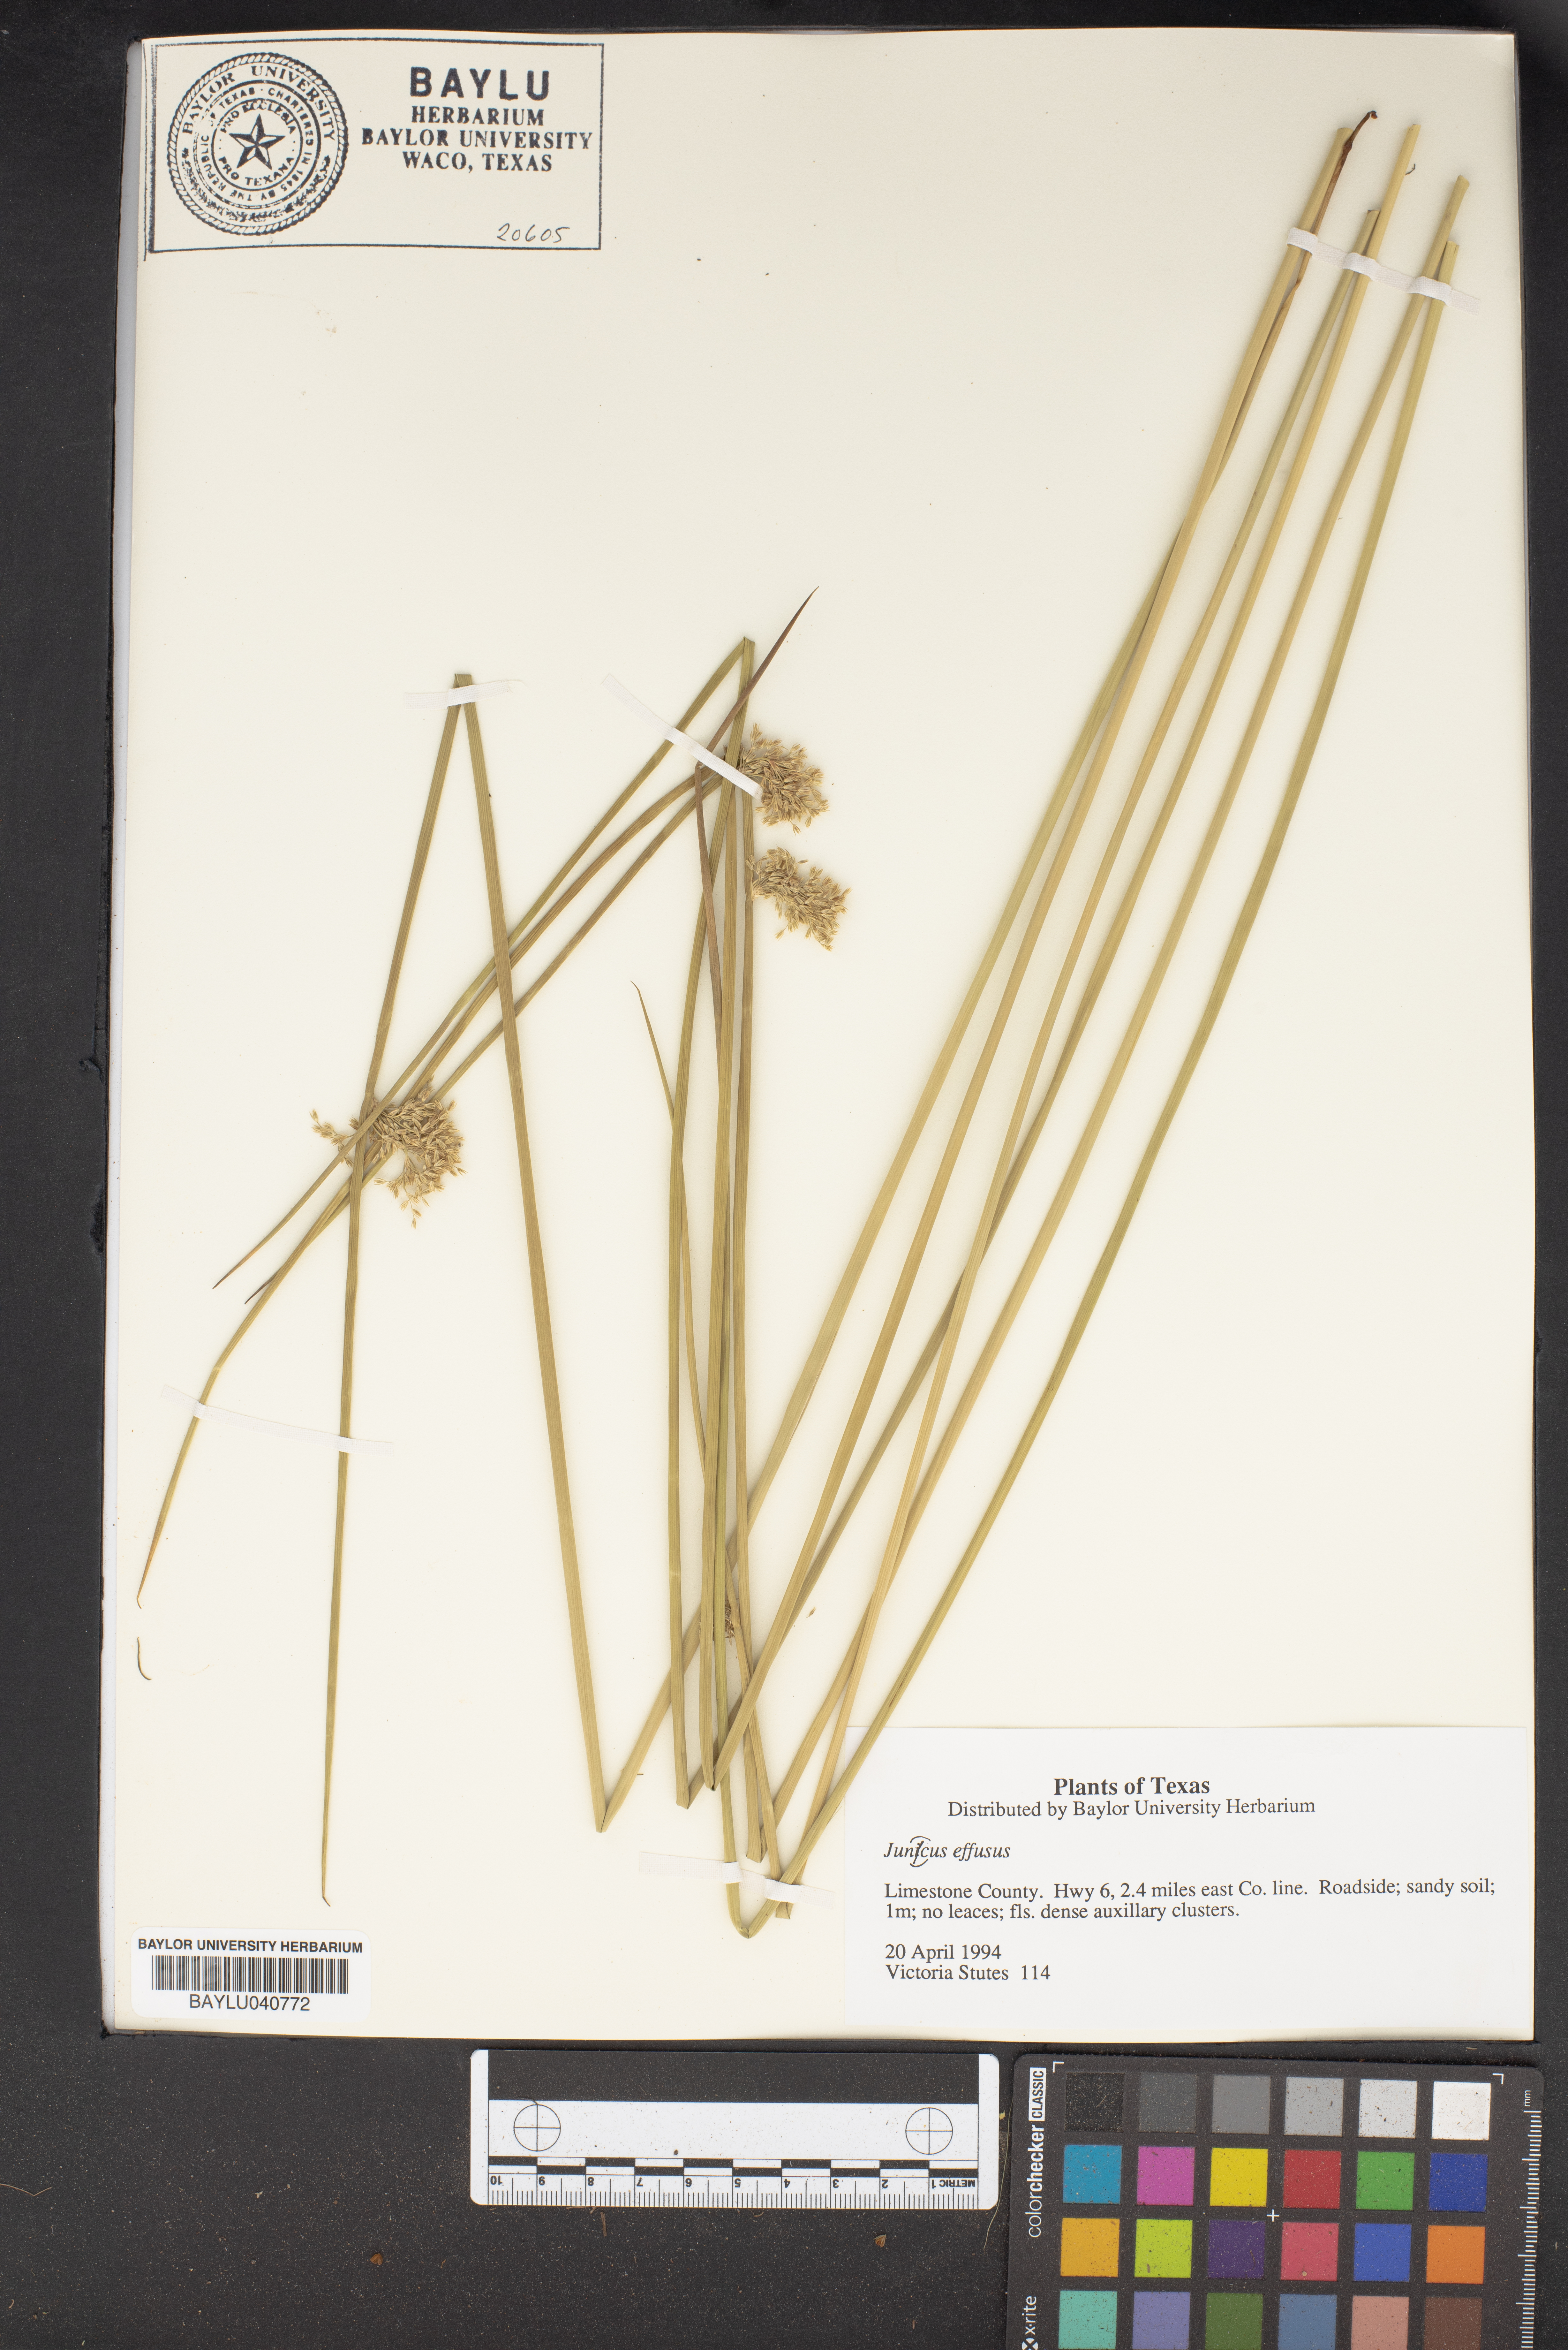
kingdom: Plantae
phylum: Tracheophyta
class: Liliopsida
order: Poales
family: Juncaceae
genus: Juncus
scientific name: Juncus effusus
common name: Soft rush
